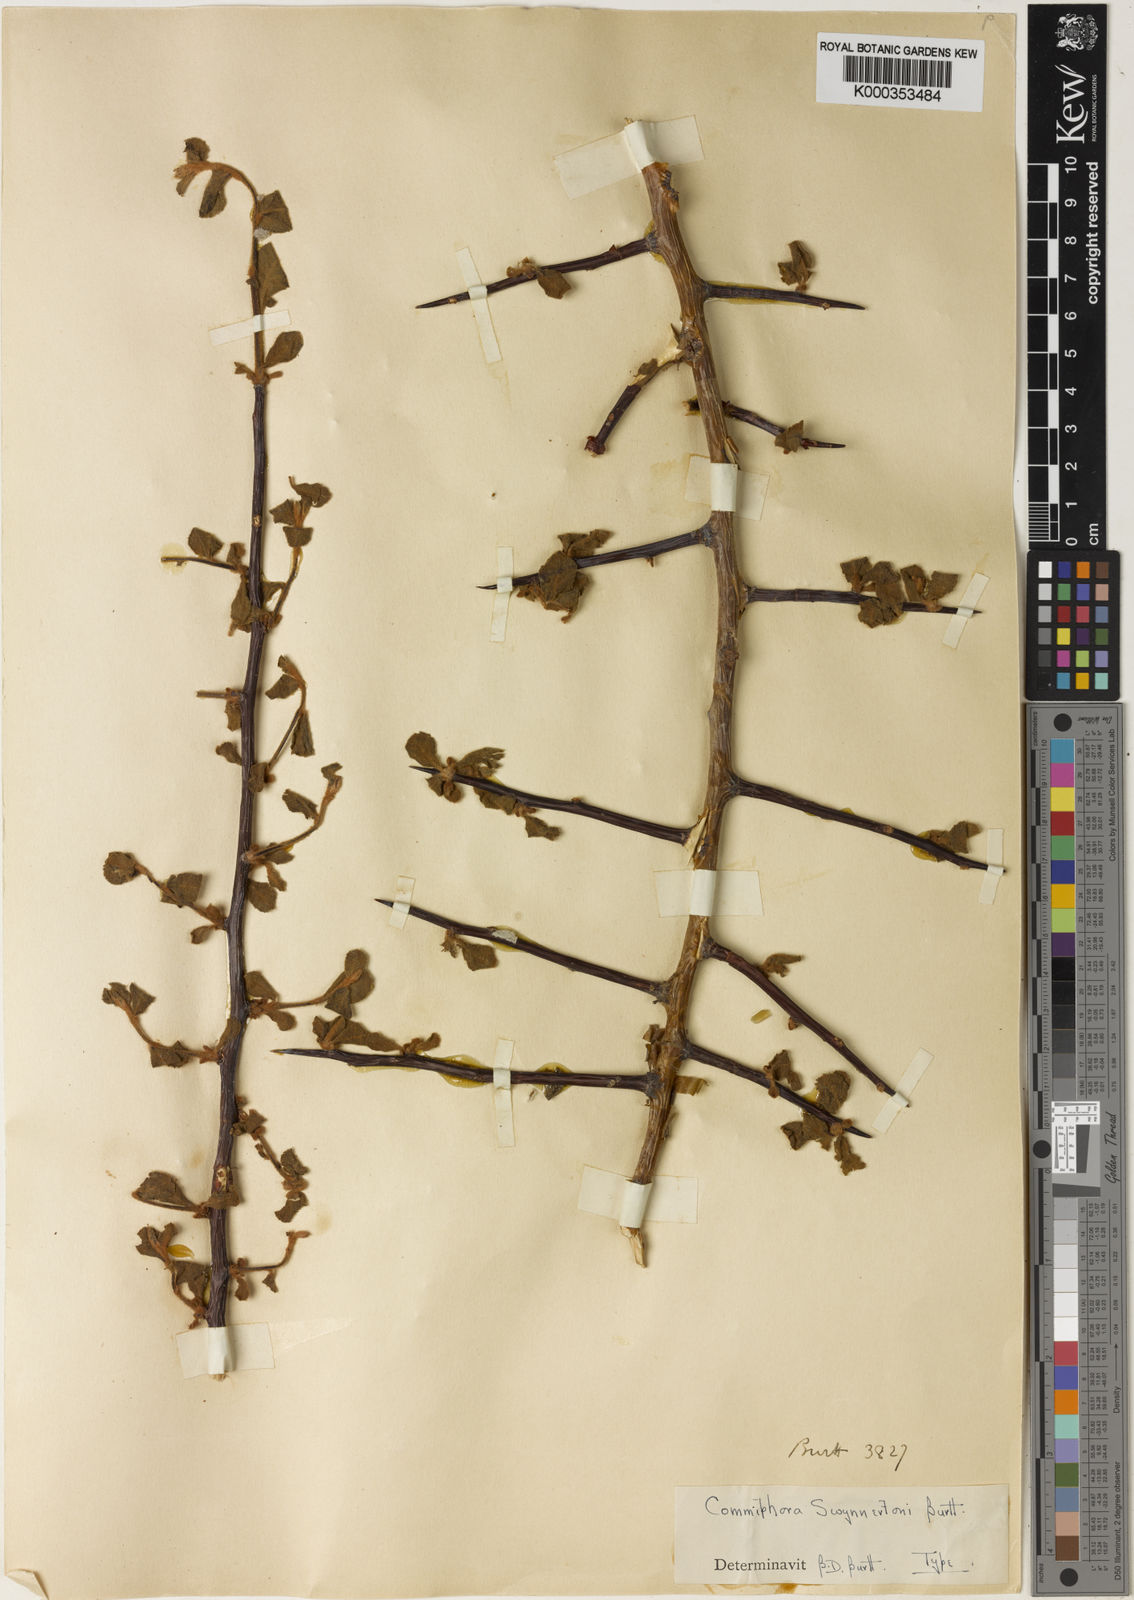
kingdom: Plantae
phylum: Tracheophyta
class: Magnoliopsida
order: Sapindales
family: Burseraceae
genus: Commiphora
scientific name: Commiphora swynnertonii
